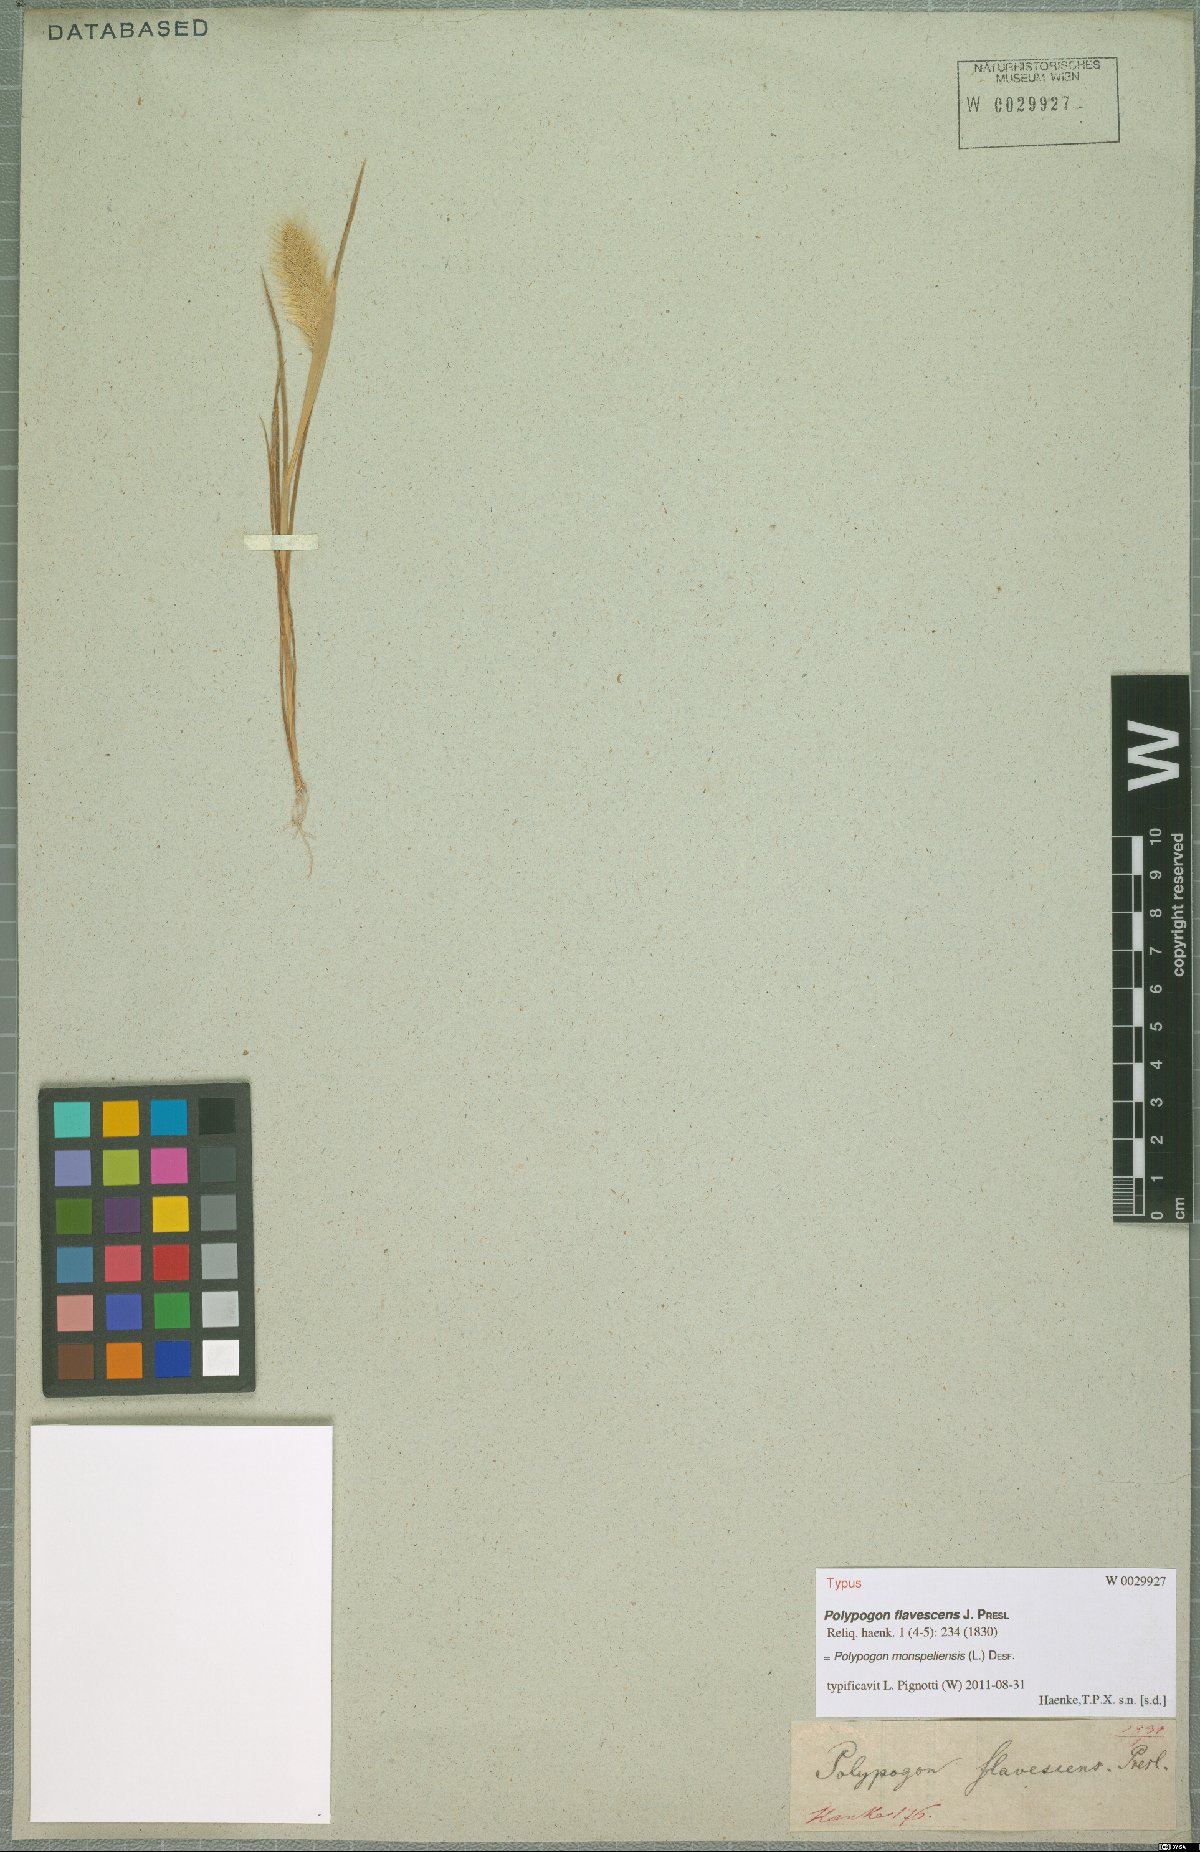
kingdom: Plantae
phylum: Tracheophyta
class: Liliopsida
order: Poales
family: Poaceae
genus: Polypogon
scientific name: Polypogon monspeliensis
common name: Annual rabbitsfoot grass
